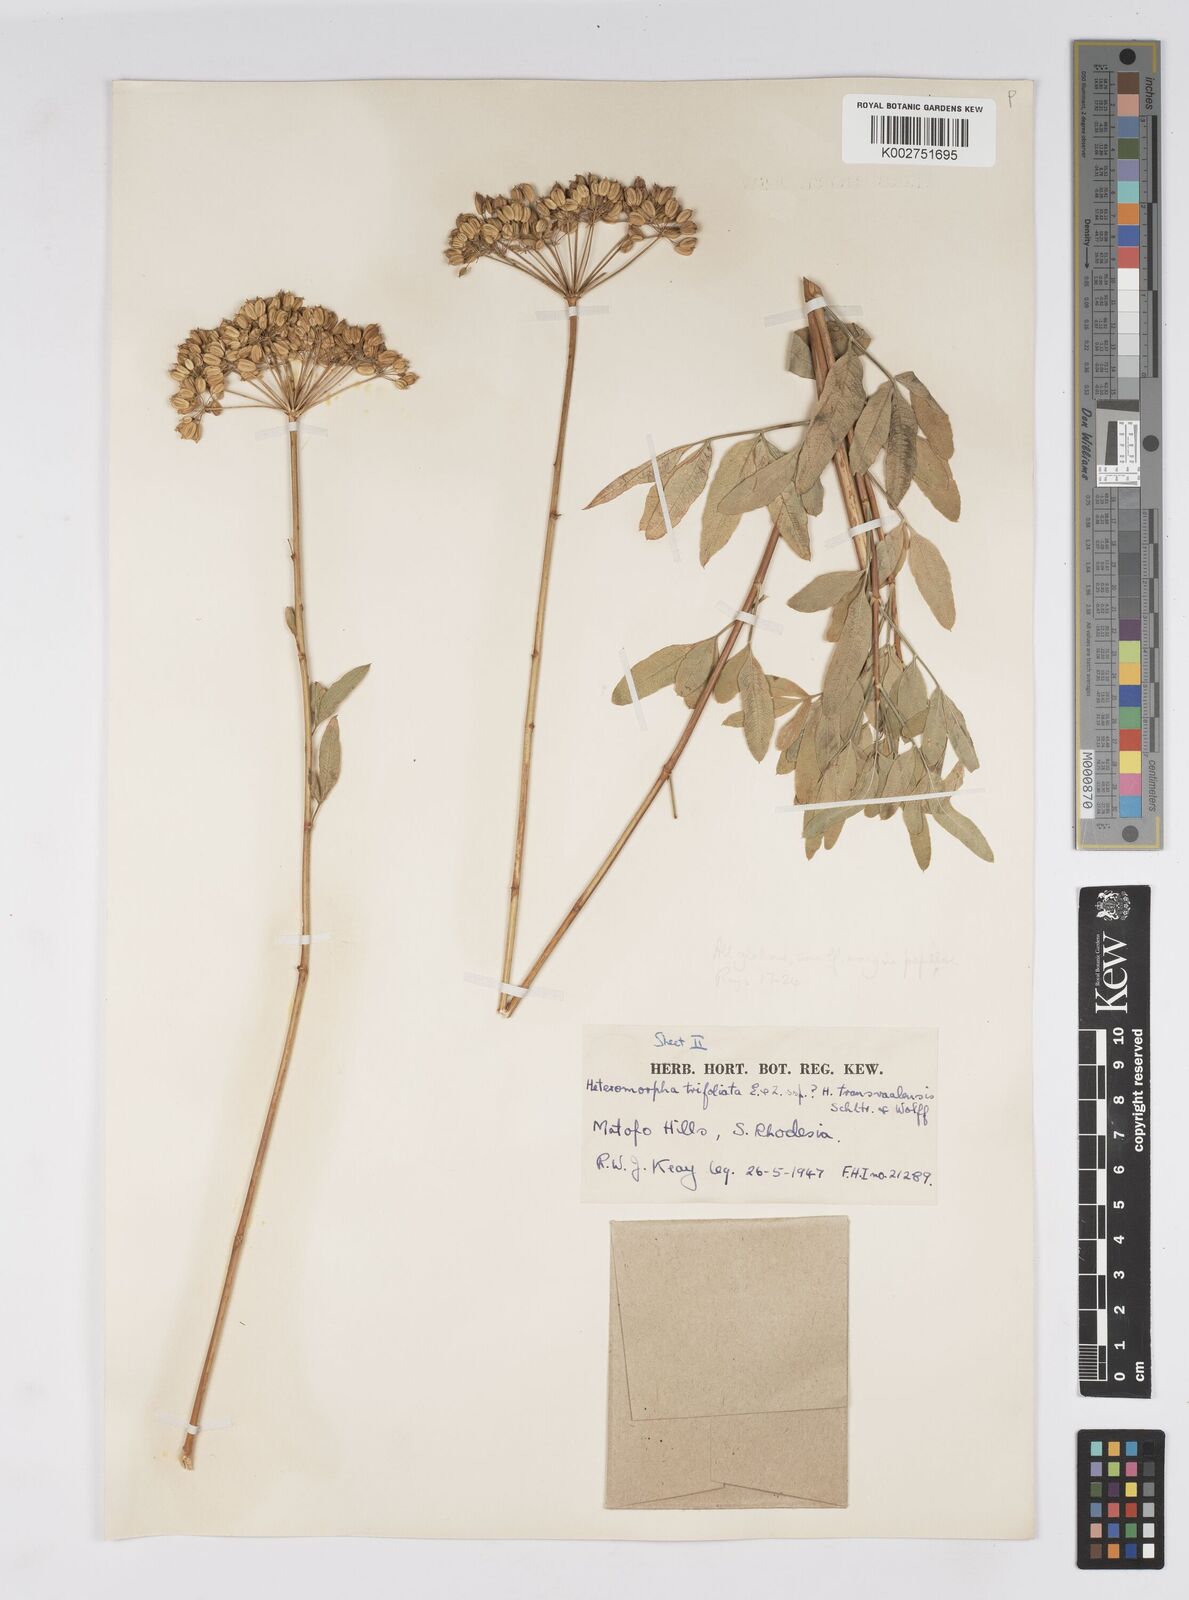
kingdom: Plantae
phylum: Tracheophyta
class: Magnoliopsida
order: Apiales
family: Apiaceae
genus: Heteromorpha
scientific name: Heteromorpha stenophylla
